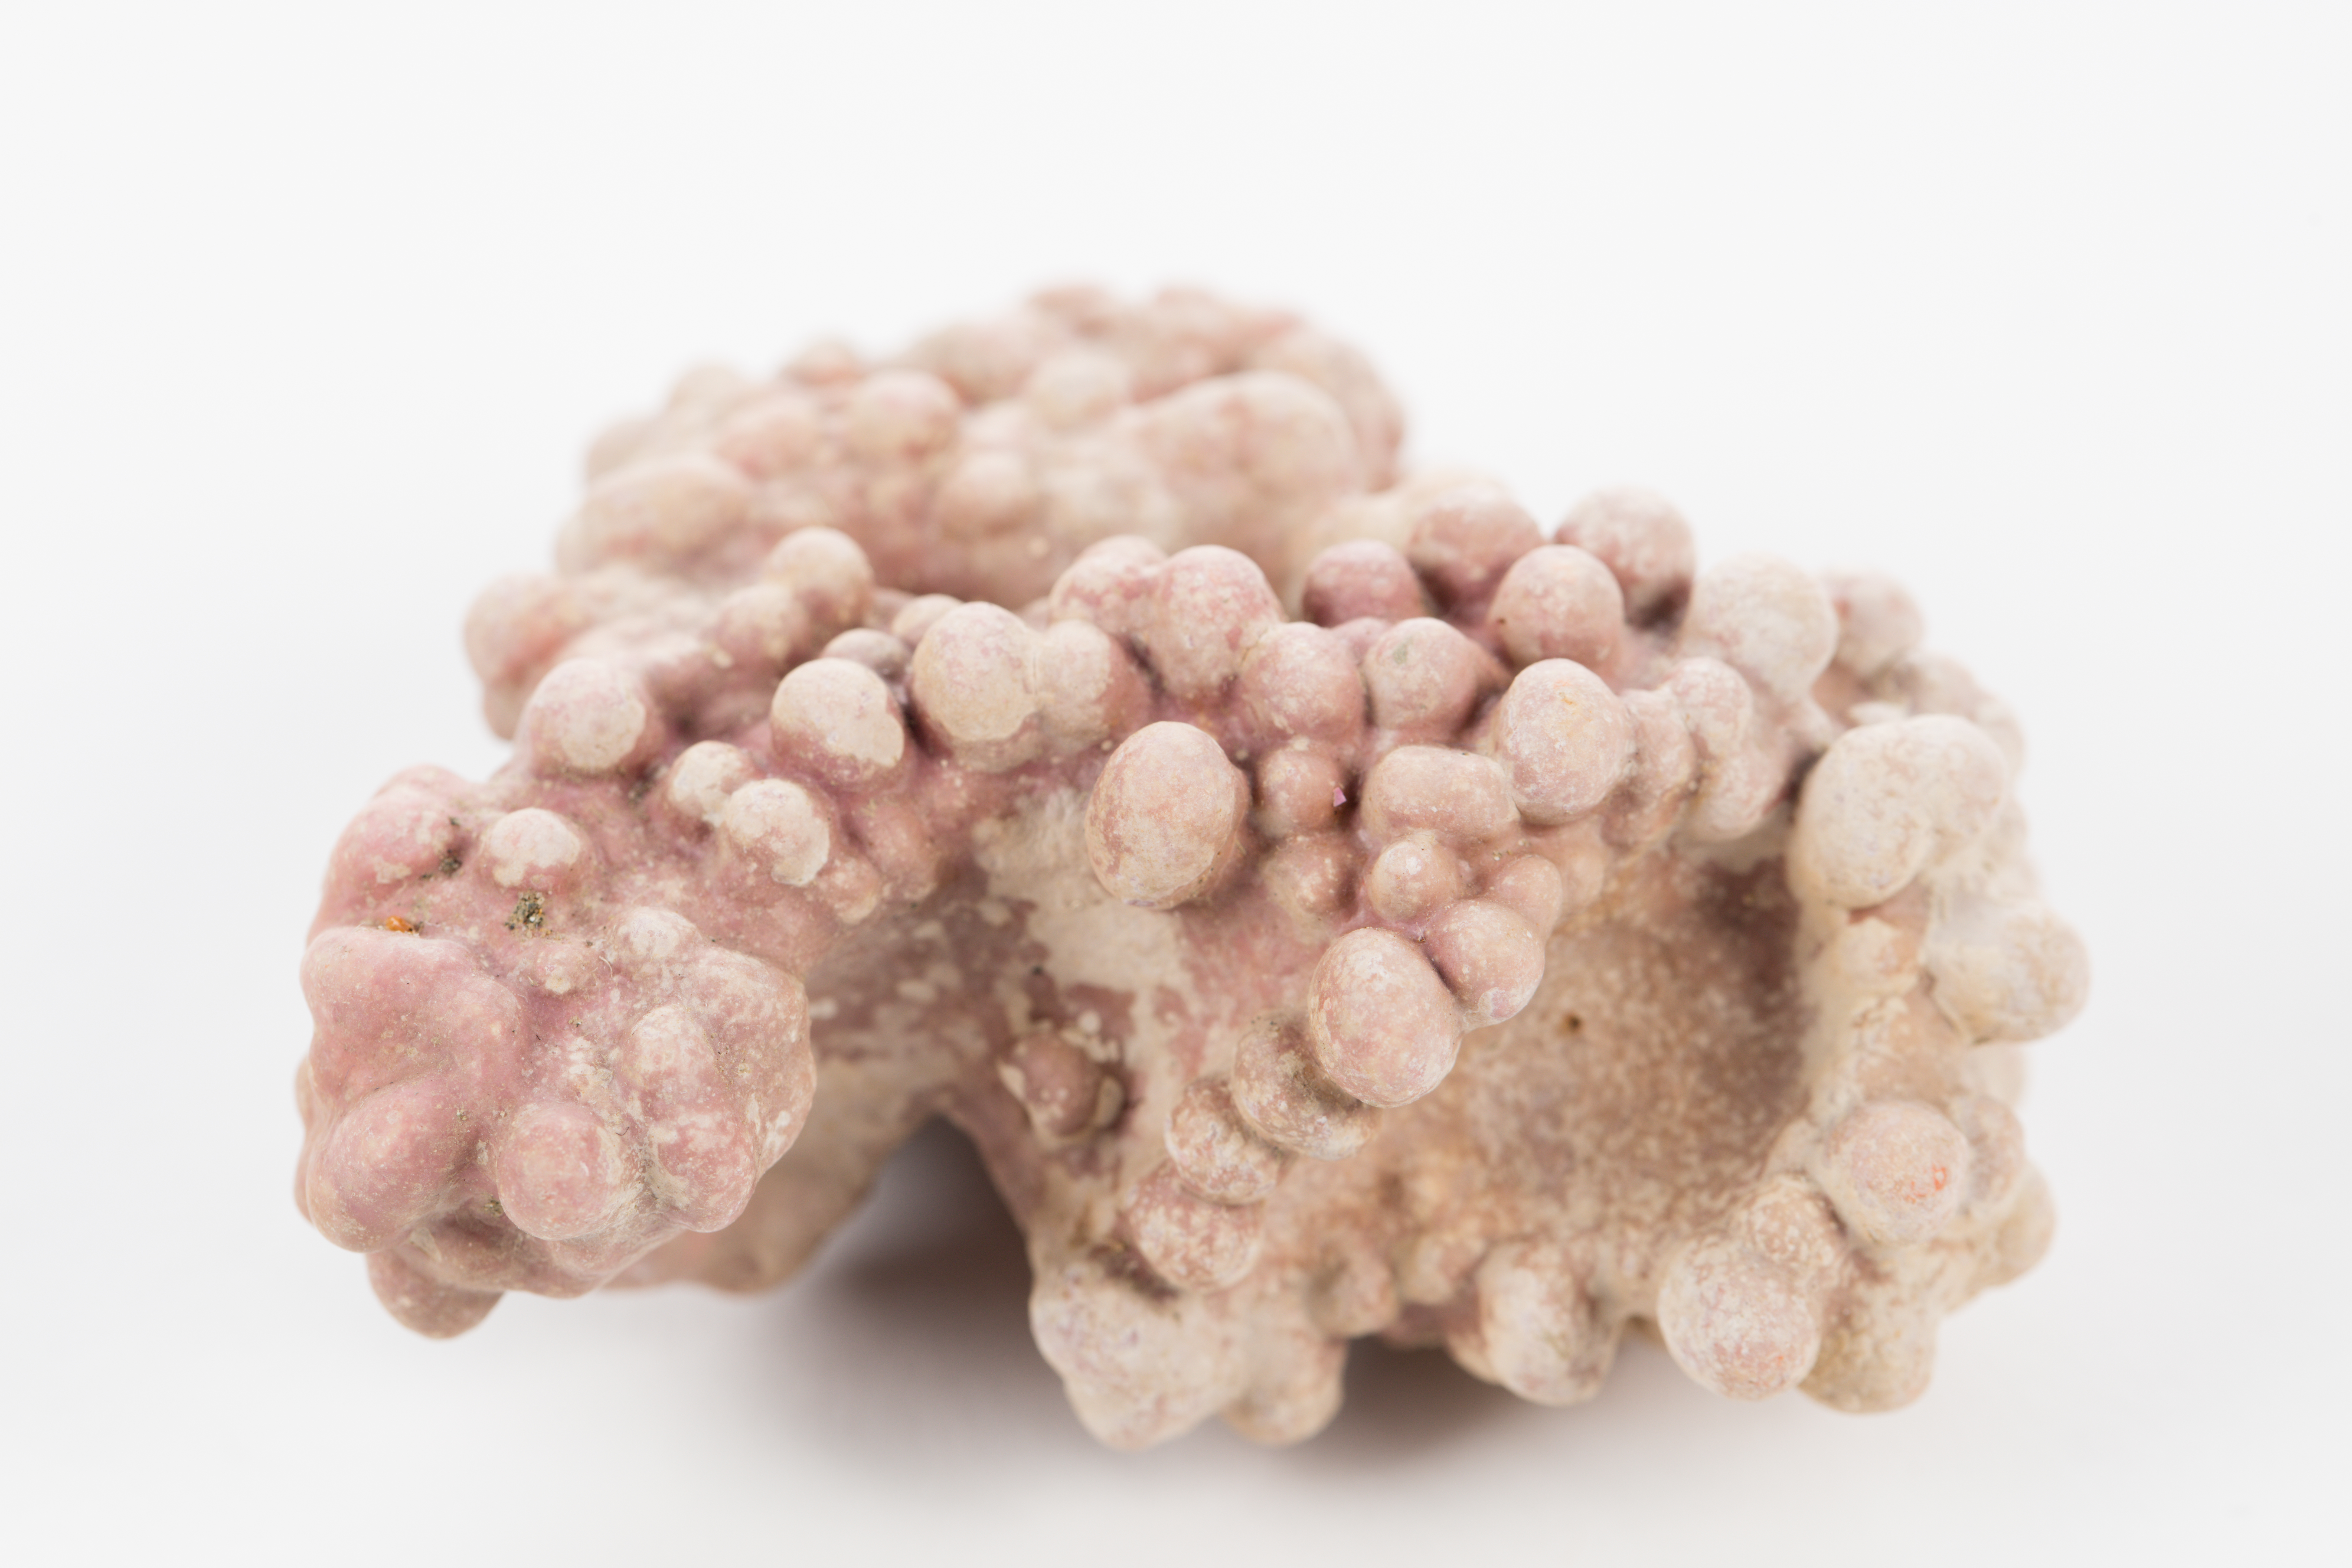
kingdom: Plantae
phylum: Rhodophyta
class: Florideophyceae
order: Corallinales
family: Sporolithaceae
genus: Sporolithon
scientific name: Sporolithon durum
